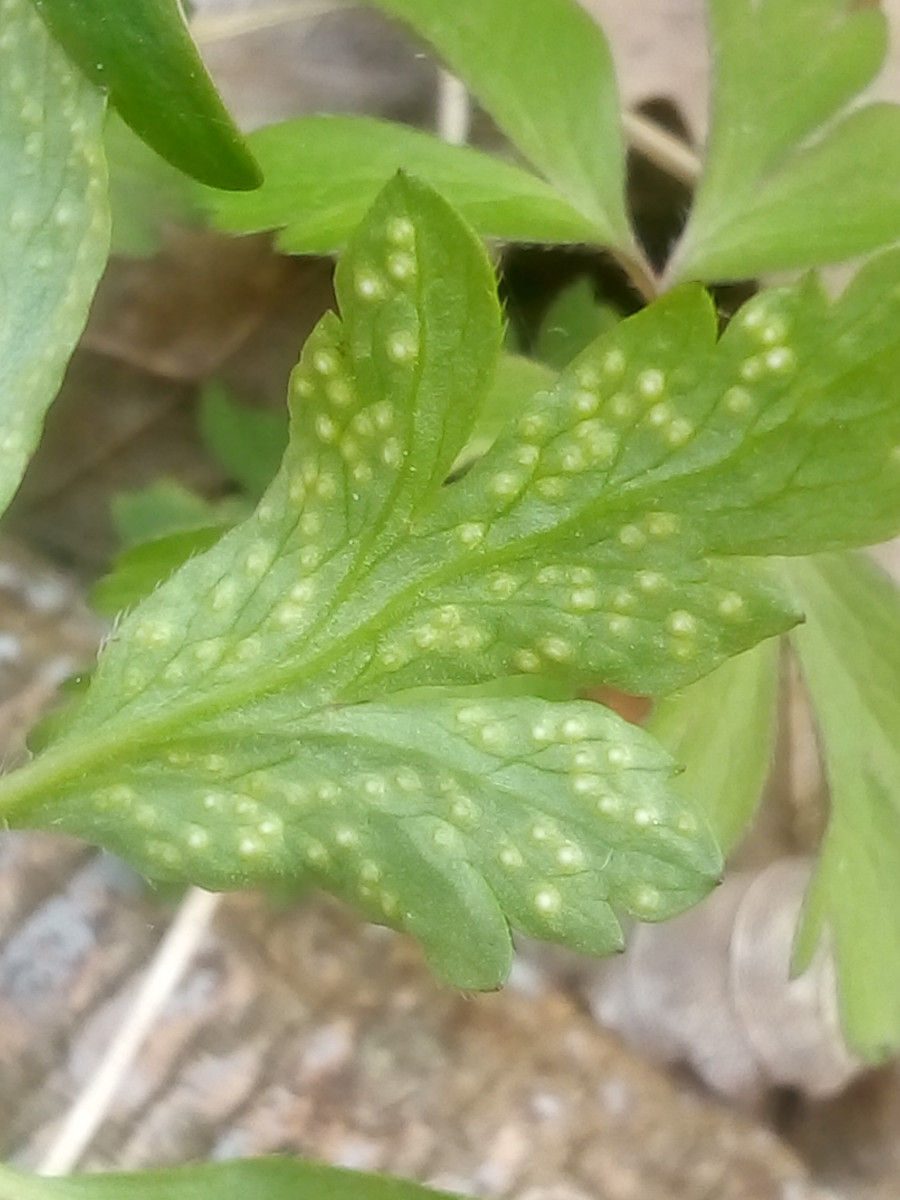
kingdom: Fungi
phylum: Basidiomycota
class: Pucciniomycetes
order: Pucciniales
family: Ochropsoraceae
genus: Ochropsora
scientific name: Ochropsora ariae
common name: anemone-okkerpletrust
